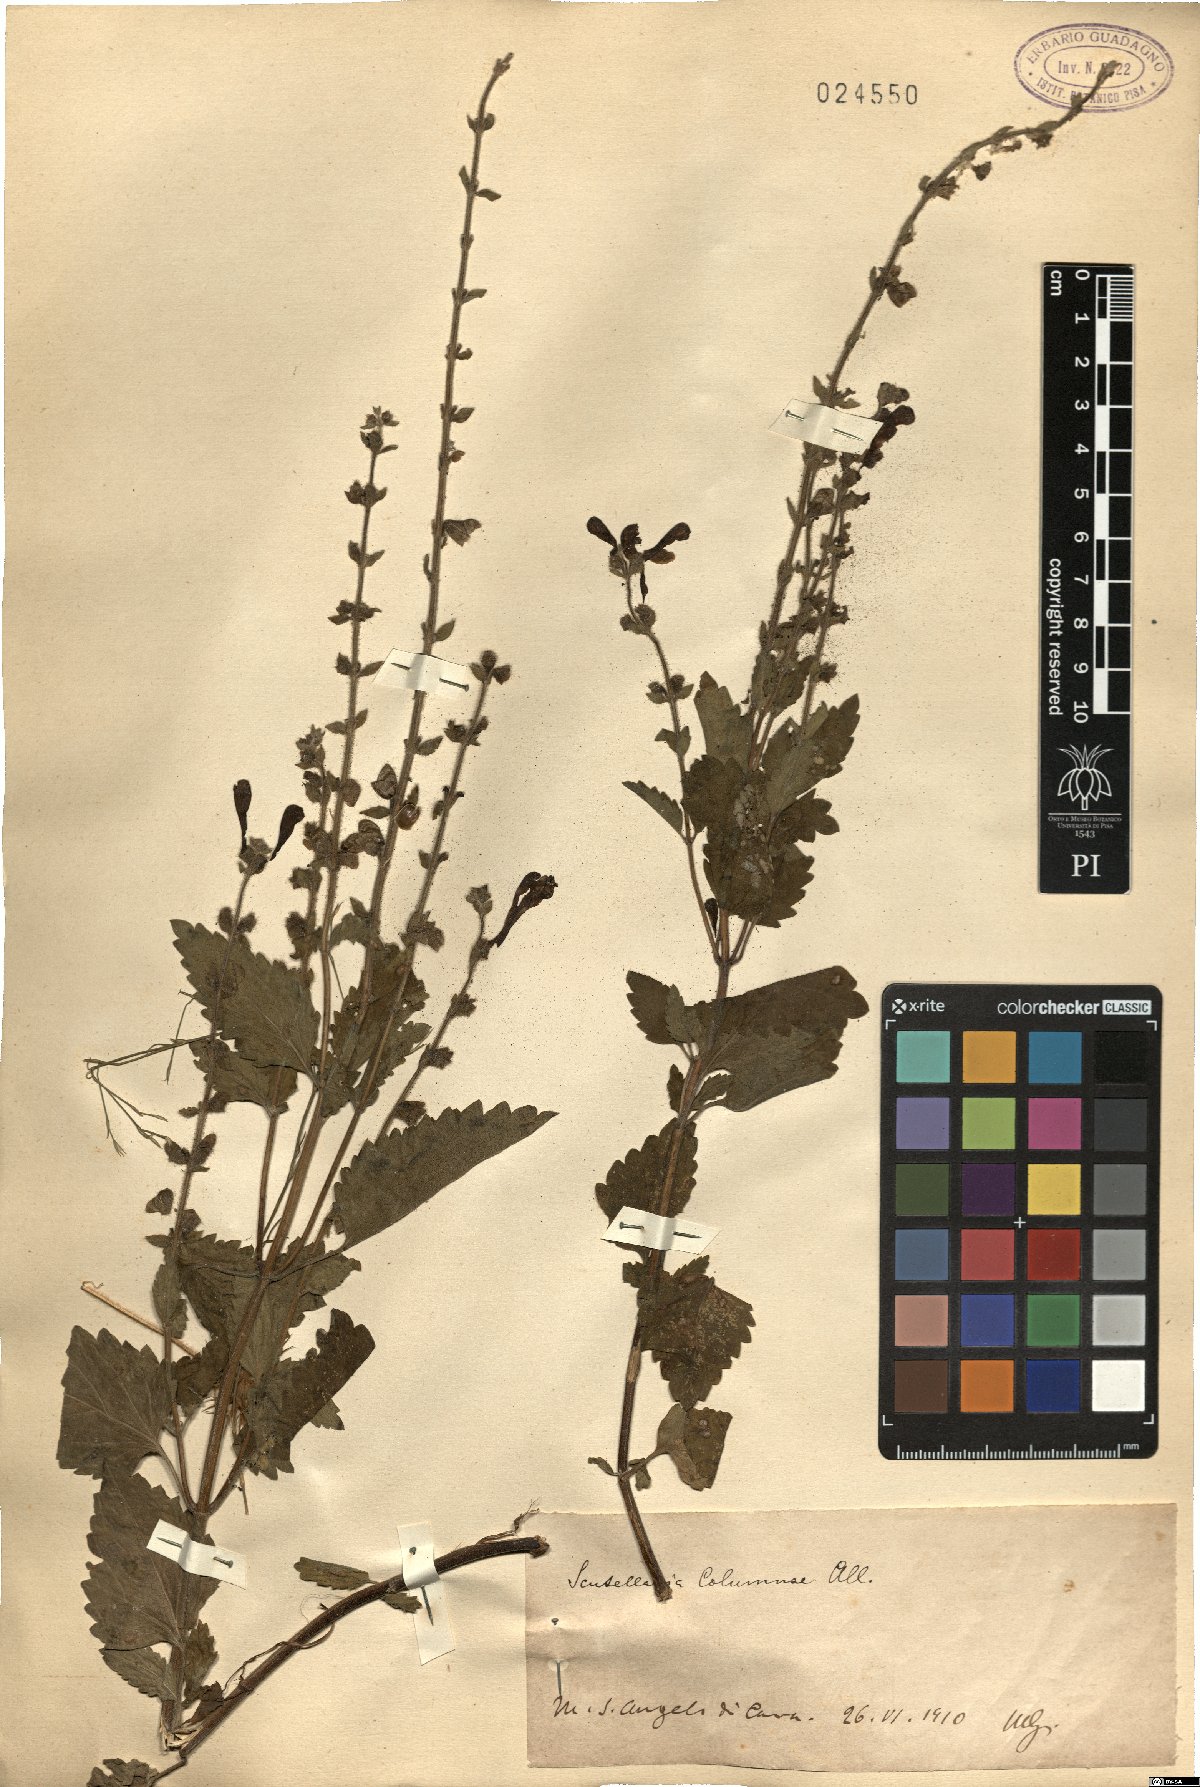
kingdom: Plantae
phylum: Tracheophyta
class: Magnoliopsida
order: Lamiales
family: Lamiaceae
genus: Scutellaria
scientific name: Scutellaria columnae
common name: Large skullcap
